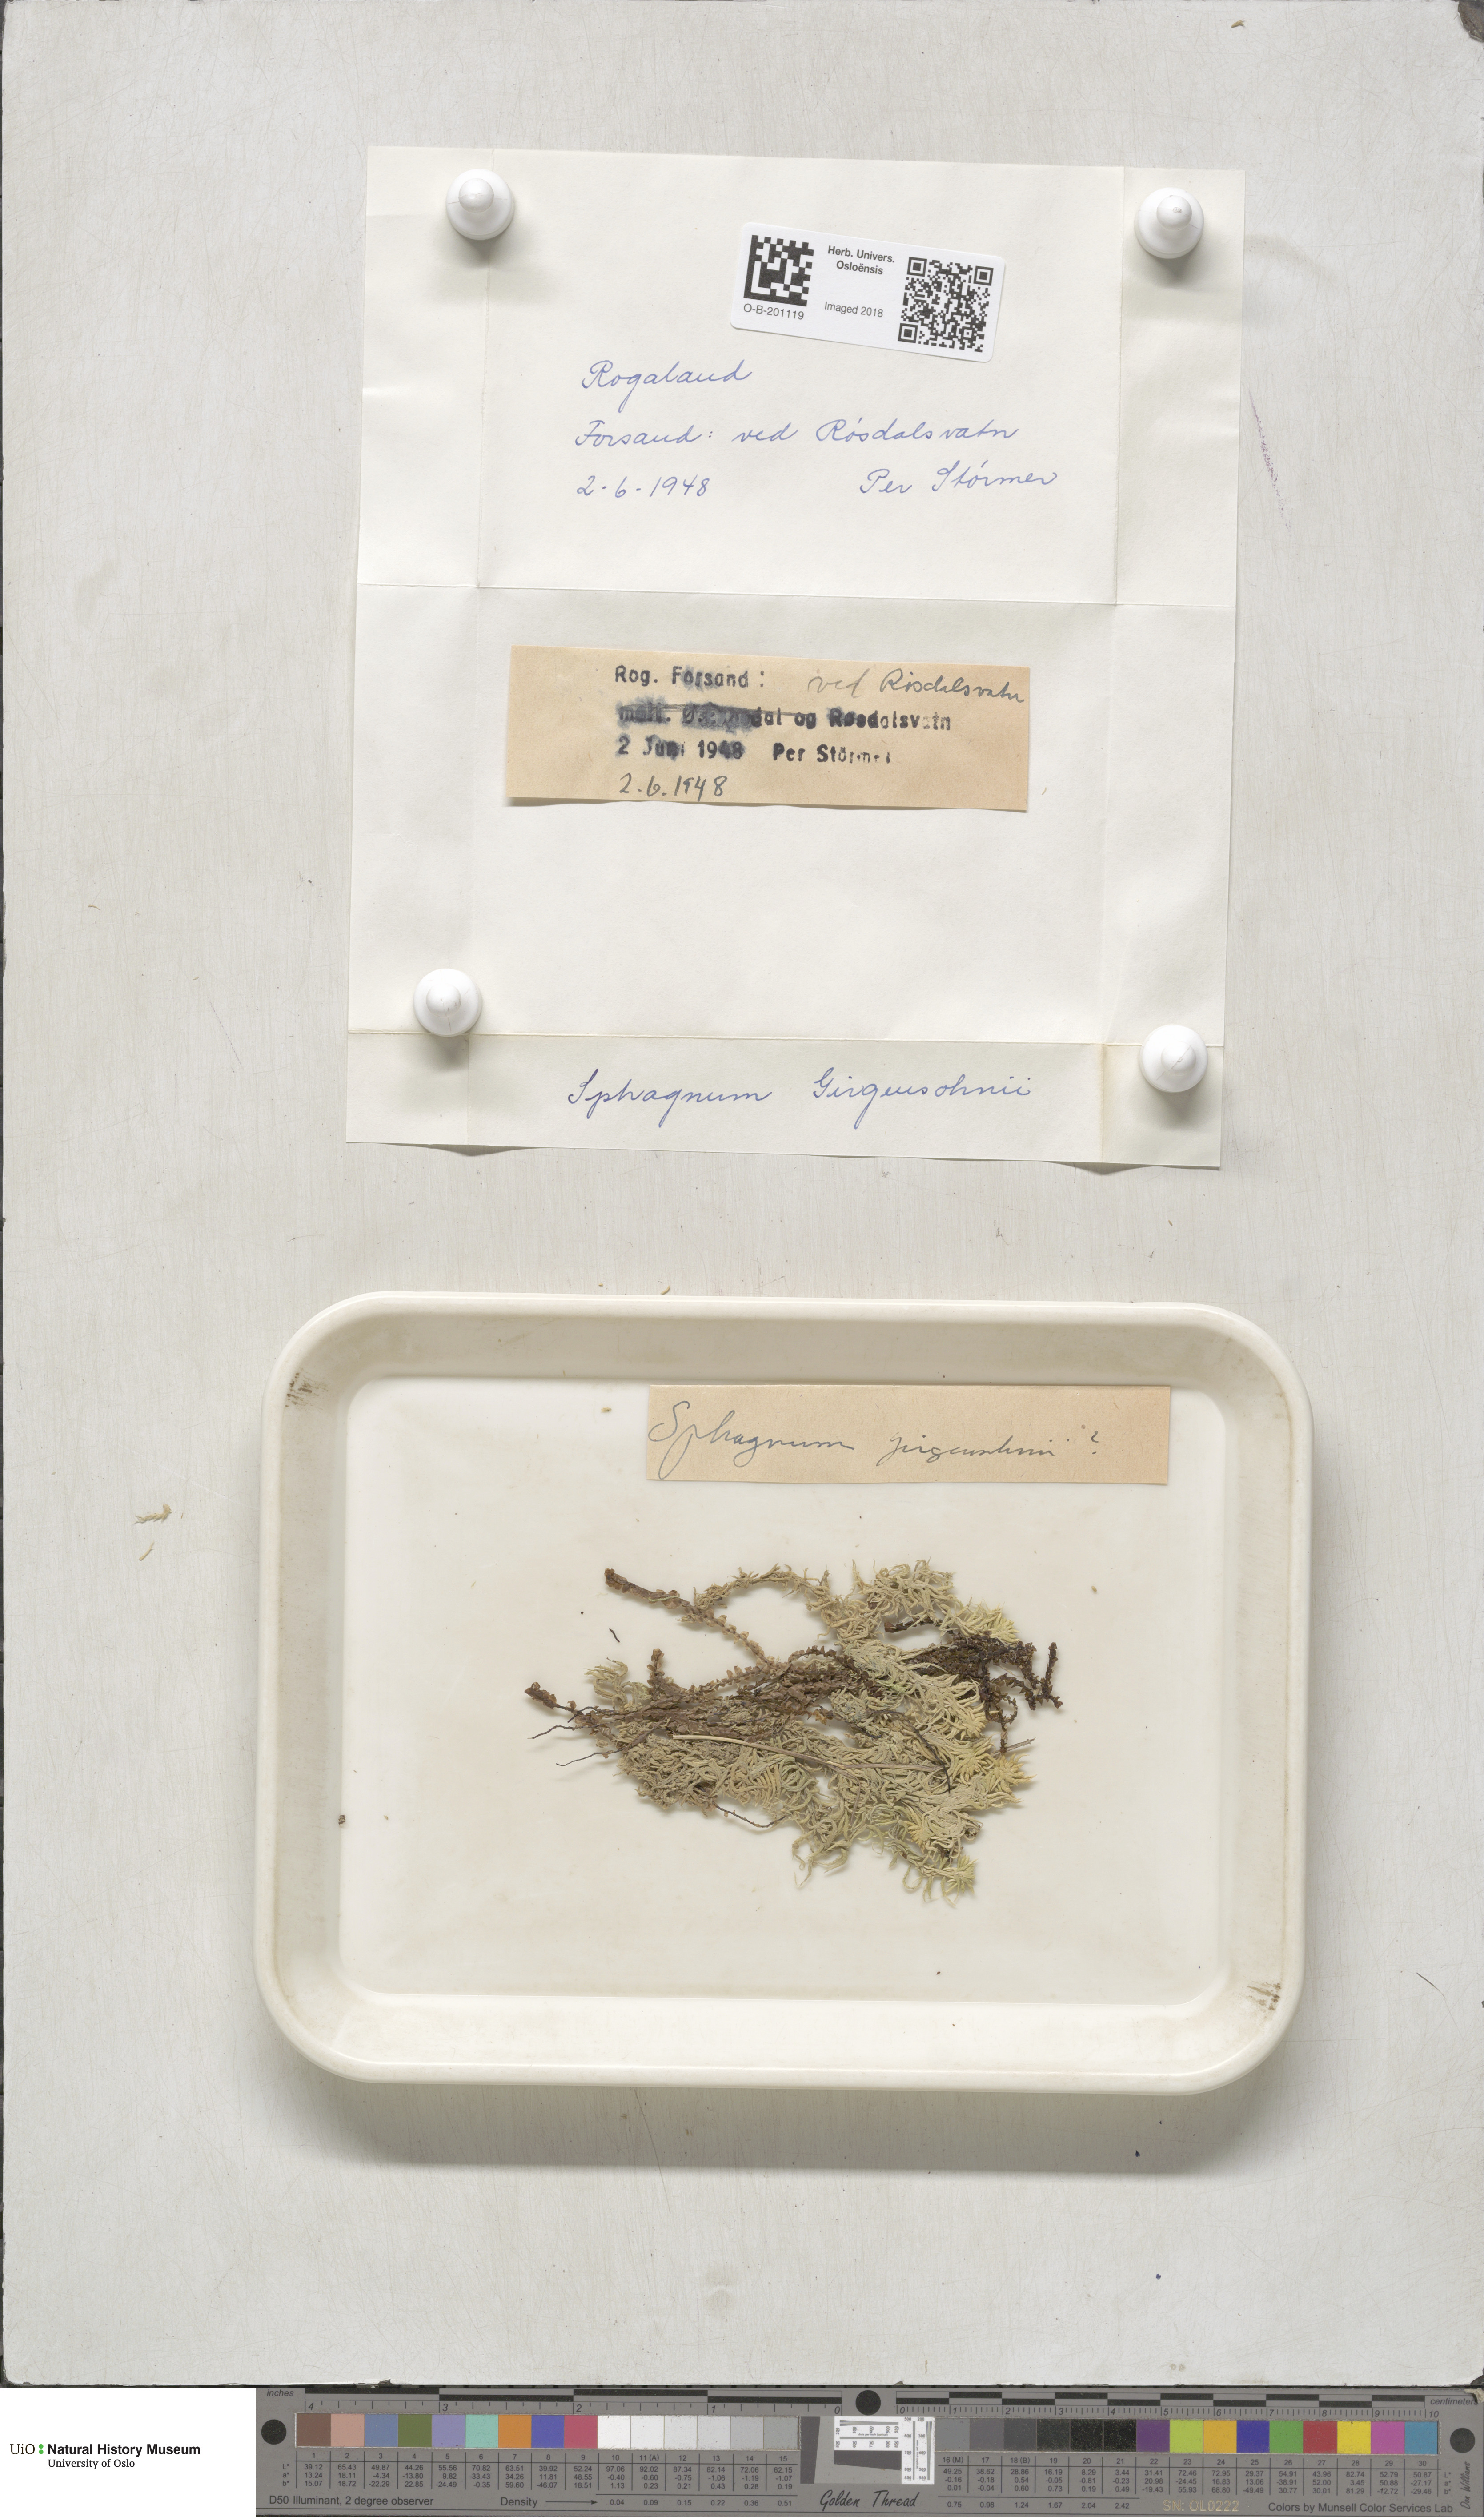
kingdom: Plantae
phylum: Bryophyta
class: Sphagnopsida
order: Sphagnales
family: Sphagnaceae
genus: Sphagnum
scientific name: Sphagnum girgensohnii
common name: Girgensohn's peat moss
